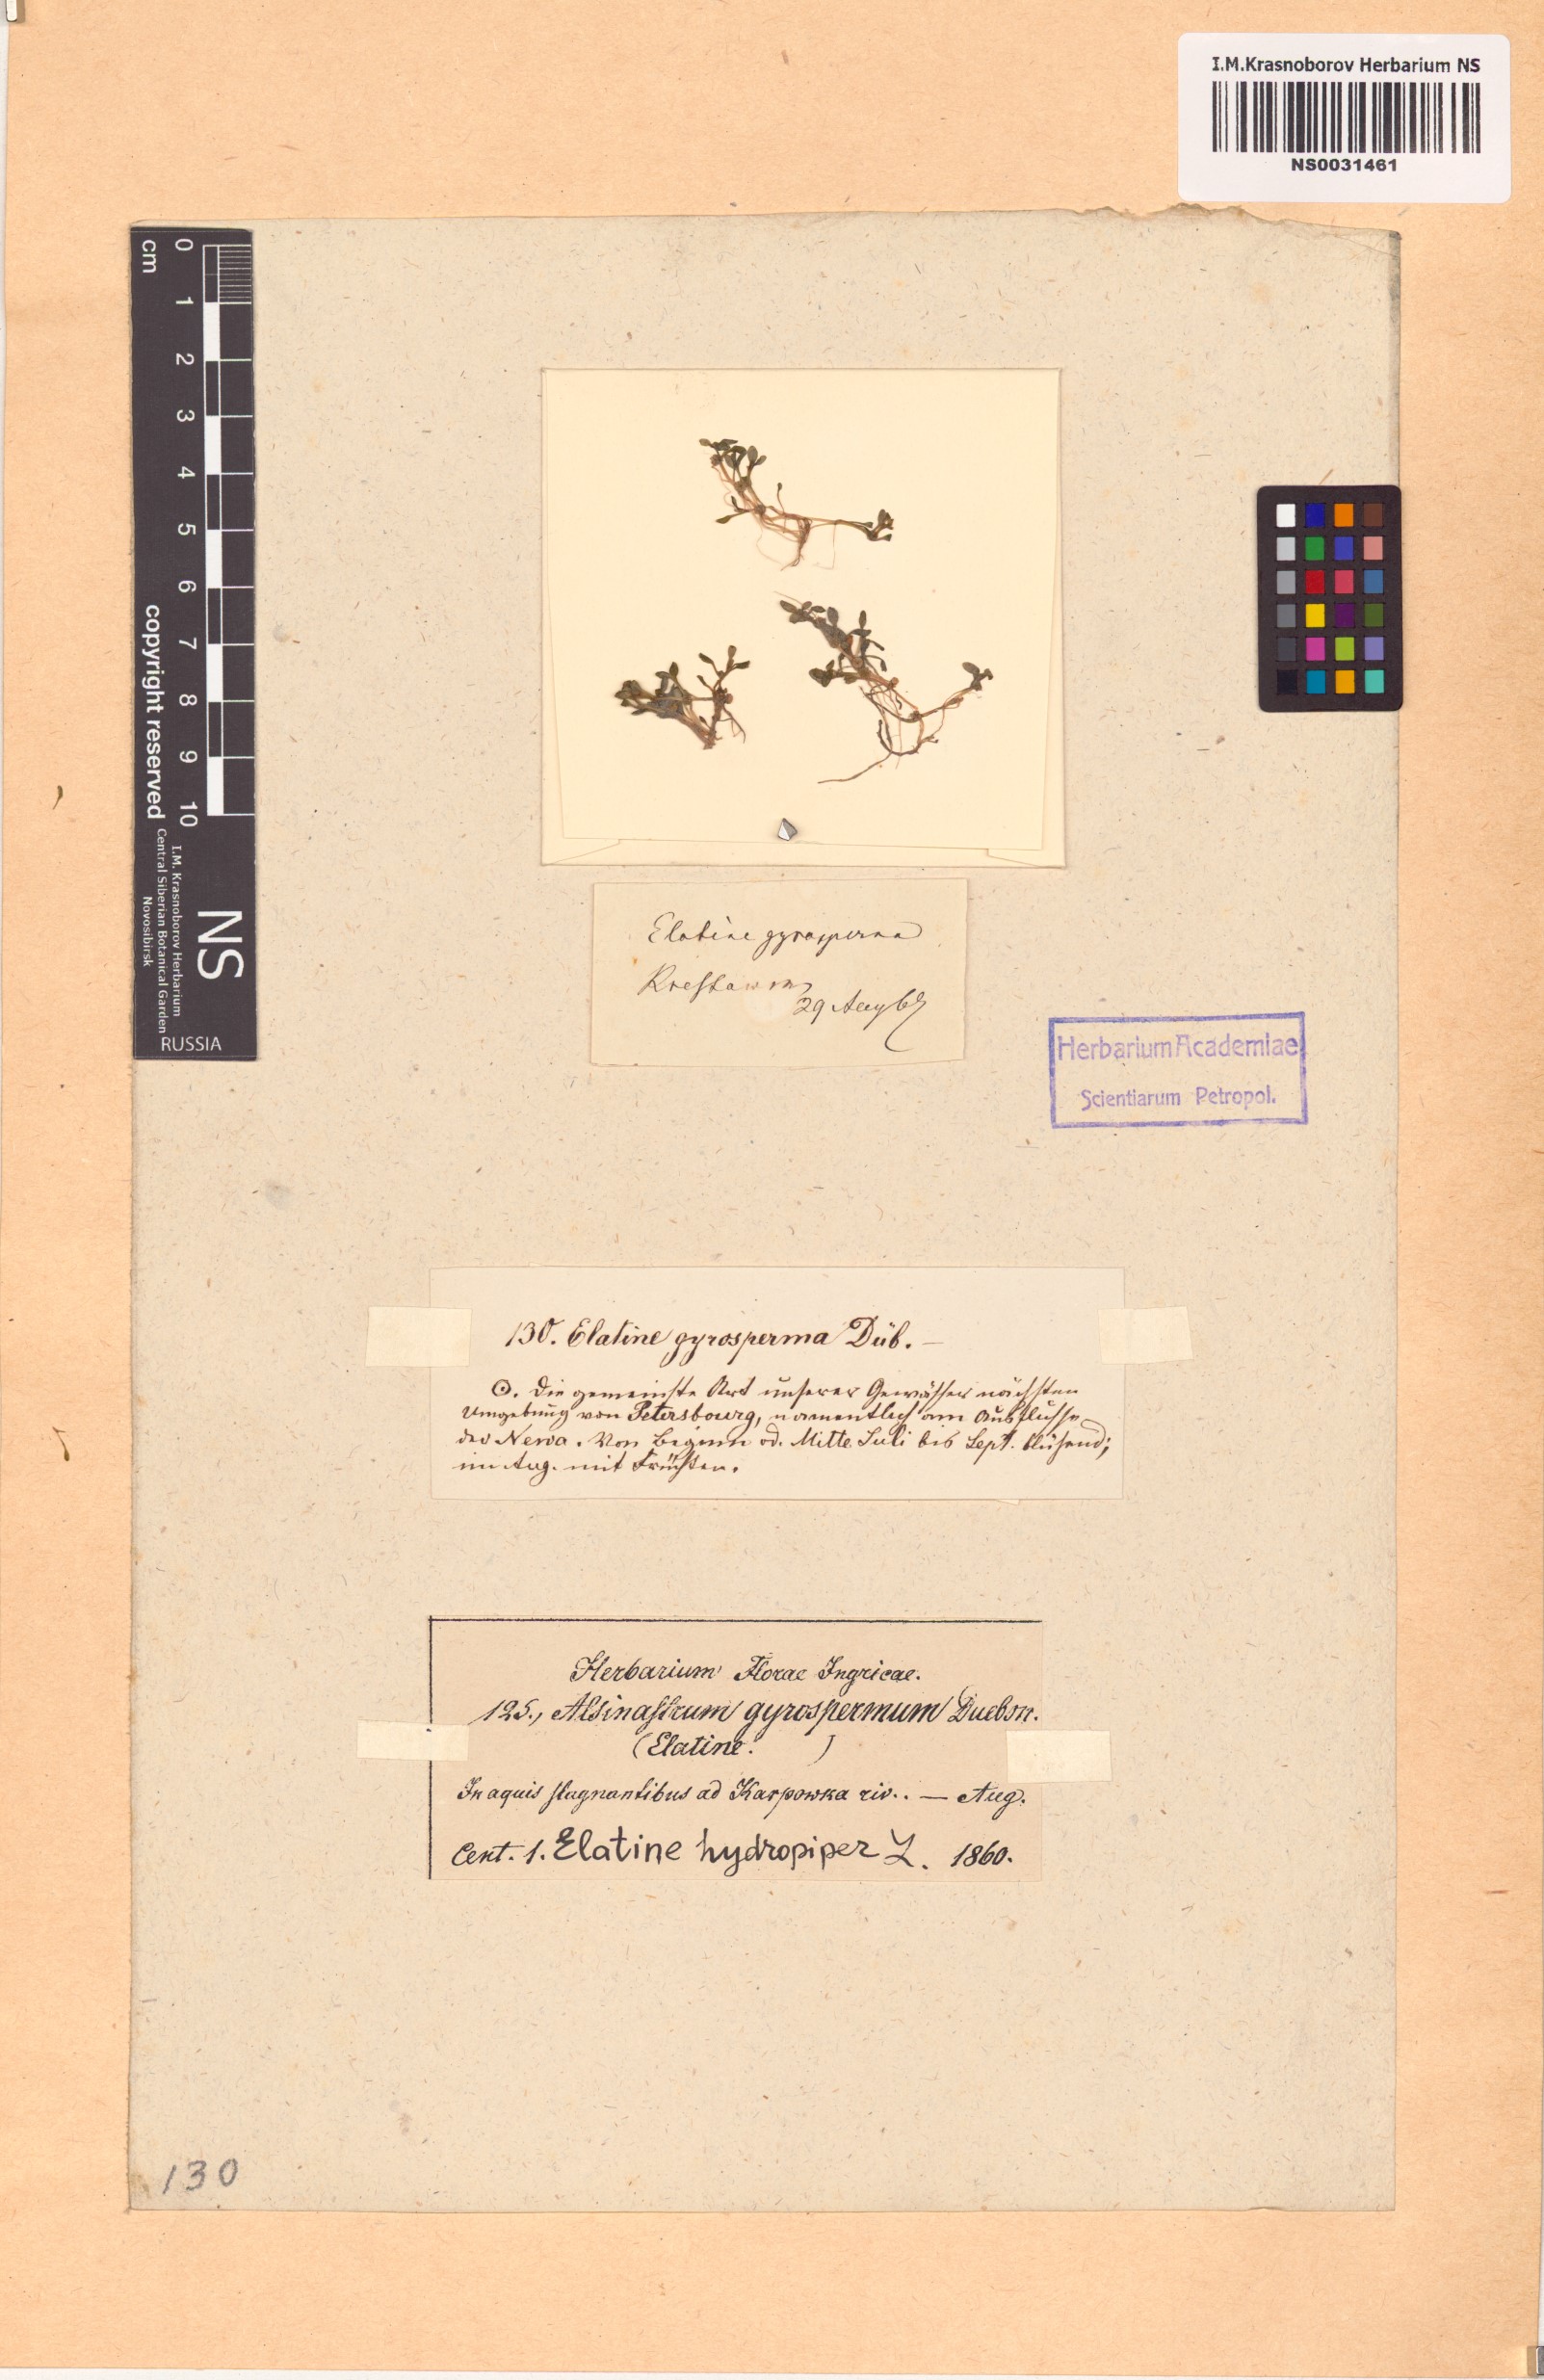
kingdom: Plantae
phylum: Tracheophyta
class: Magnoliopsida
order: Malpighiales
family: Elatinaceae
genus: Elatine
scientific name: Elatine hydropiper
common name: Eight-stamened waterwort
